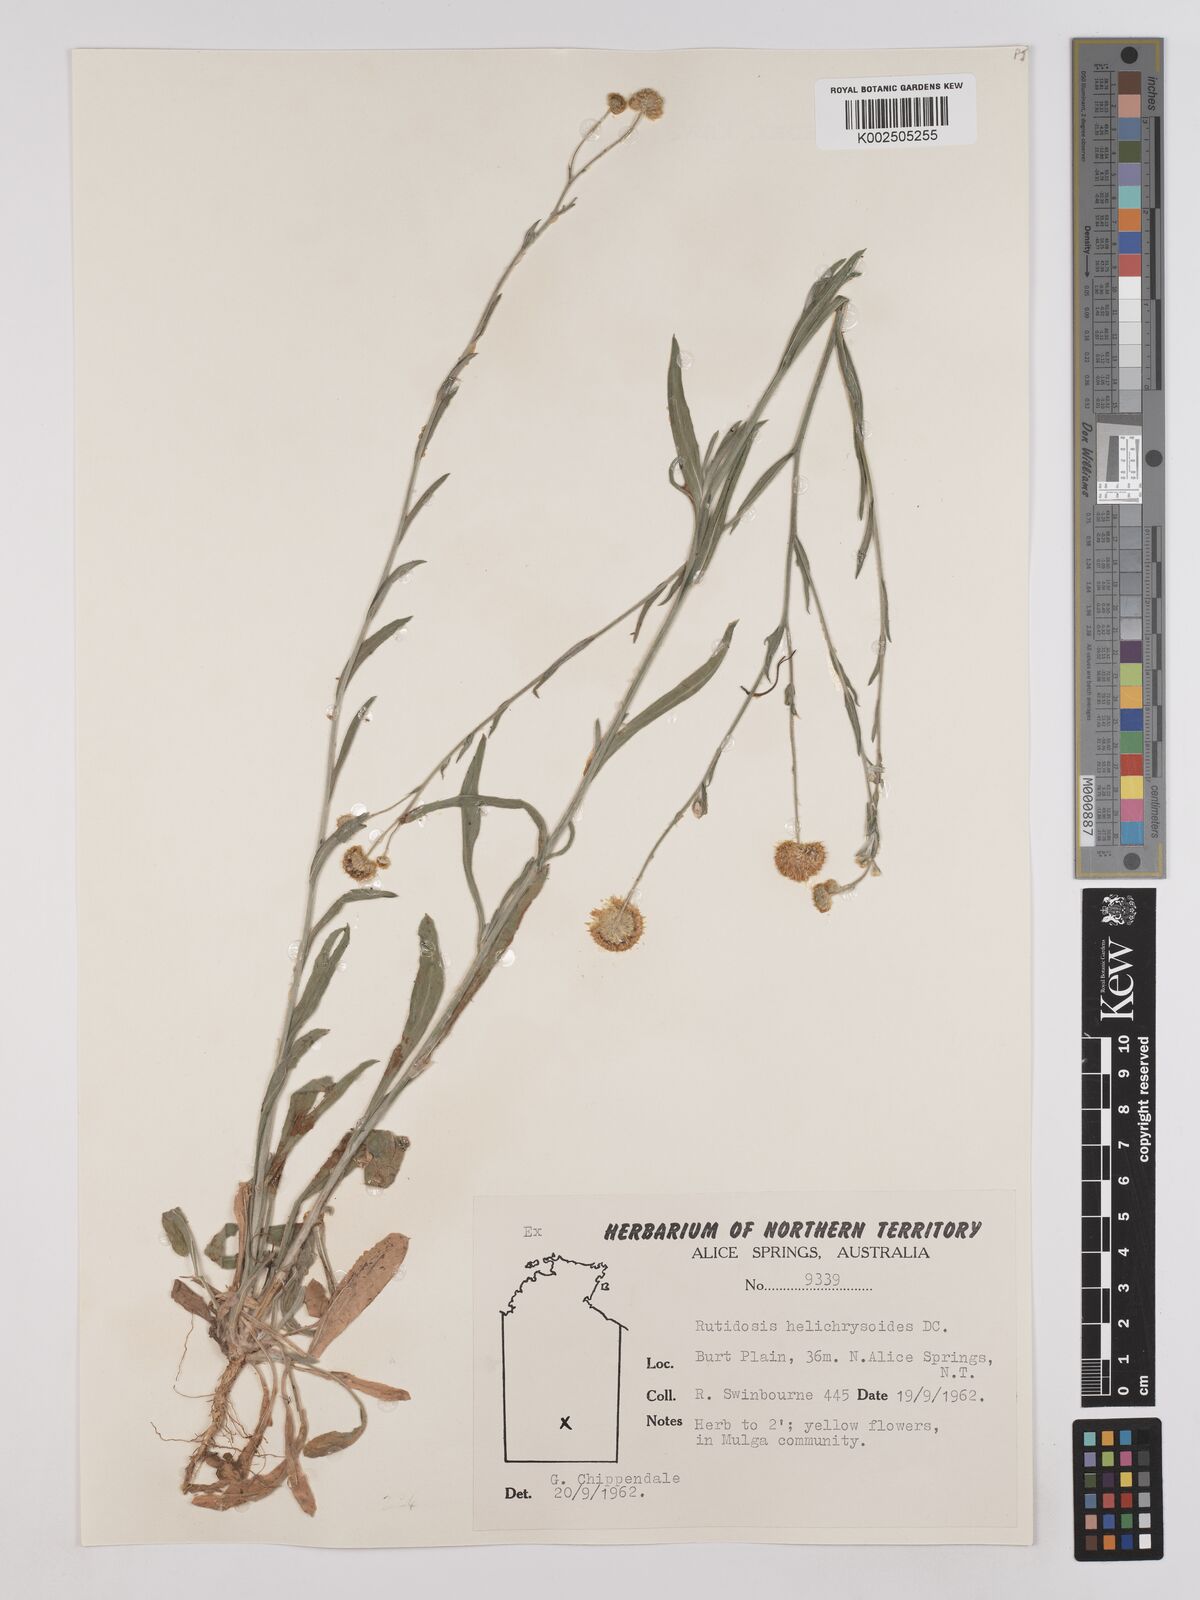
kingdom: Plantae
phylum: Tracheophyta
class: Magnoliopsida
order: Asterales
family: Asteraceae
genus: Rutidosis
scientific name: Rutidosis helichrysoides
